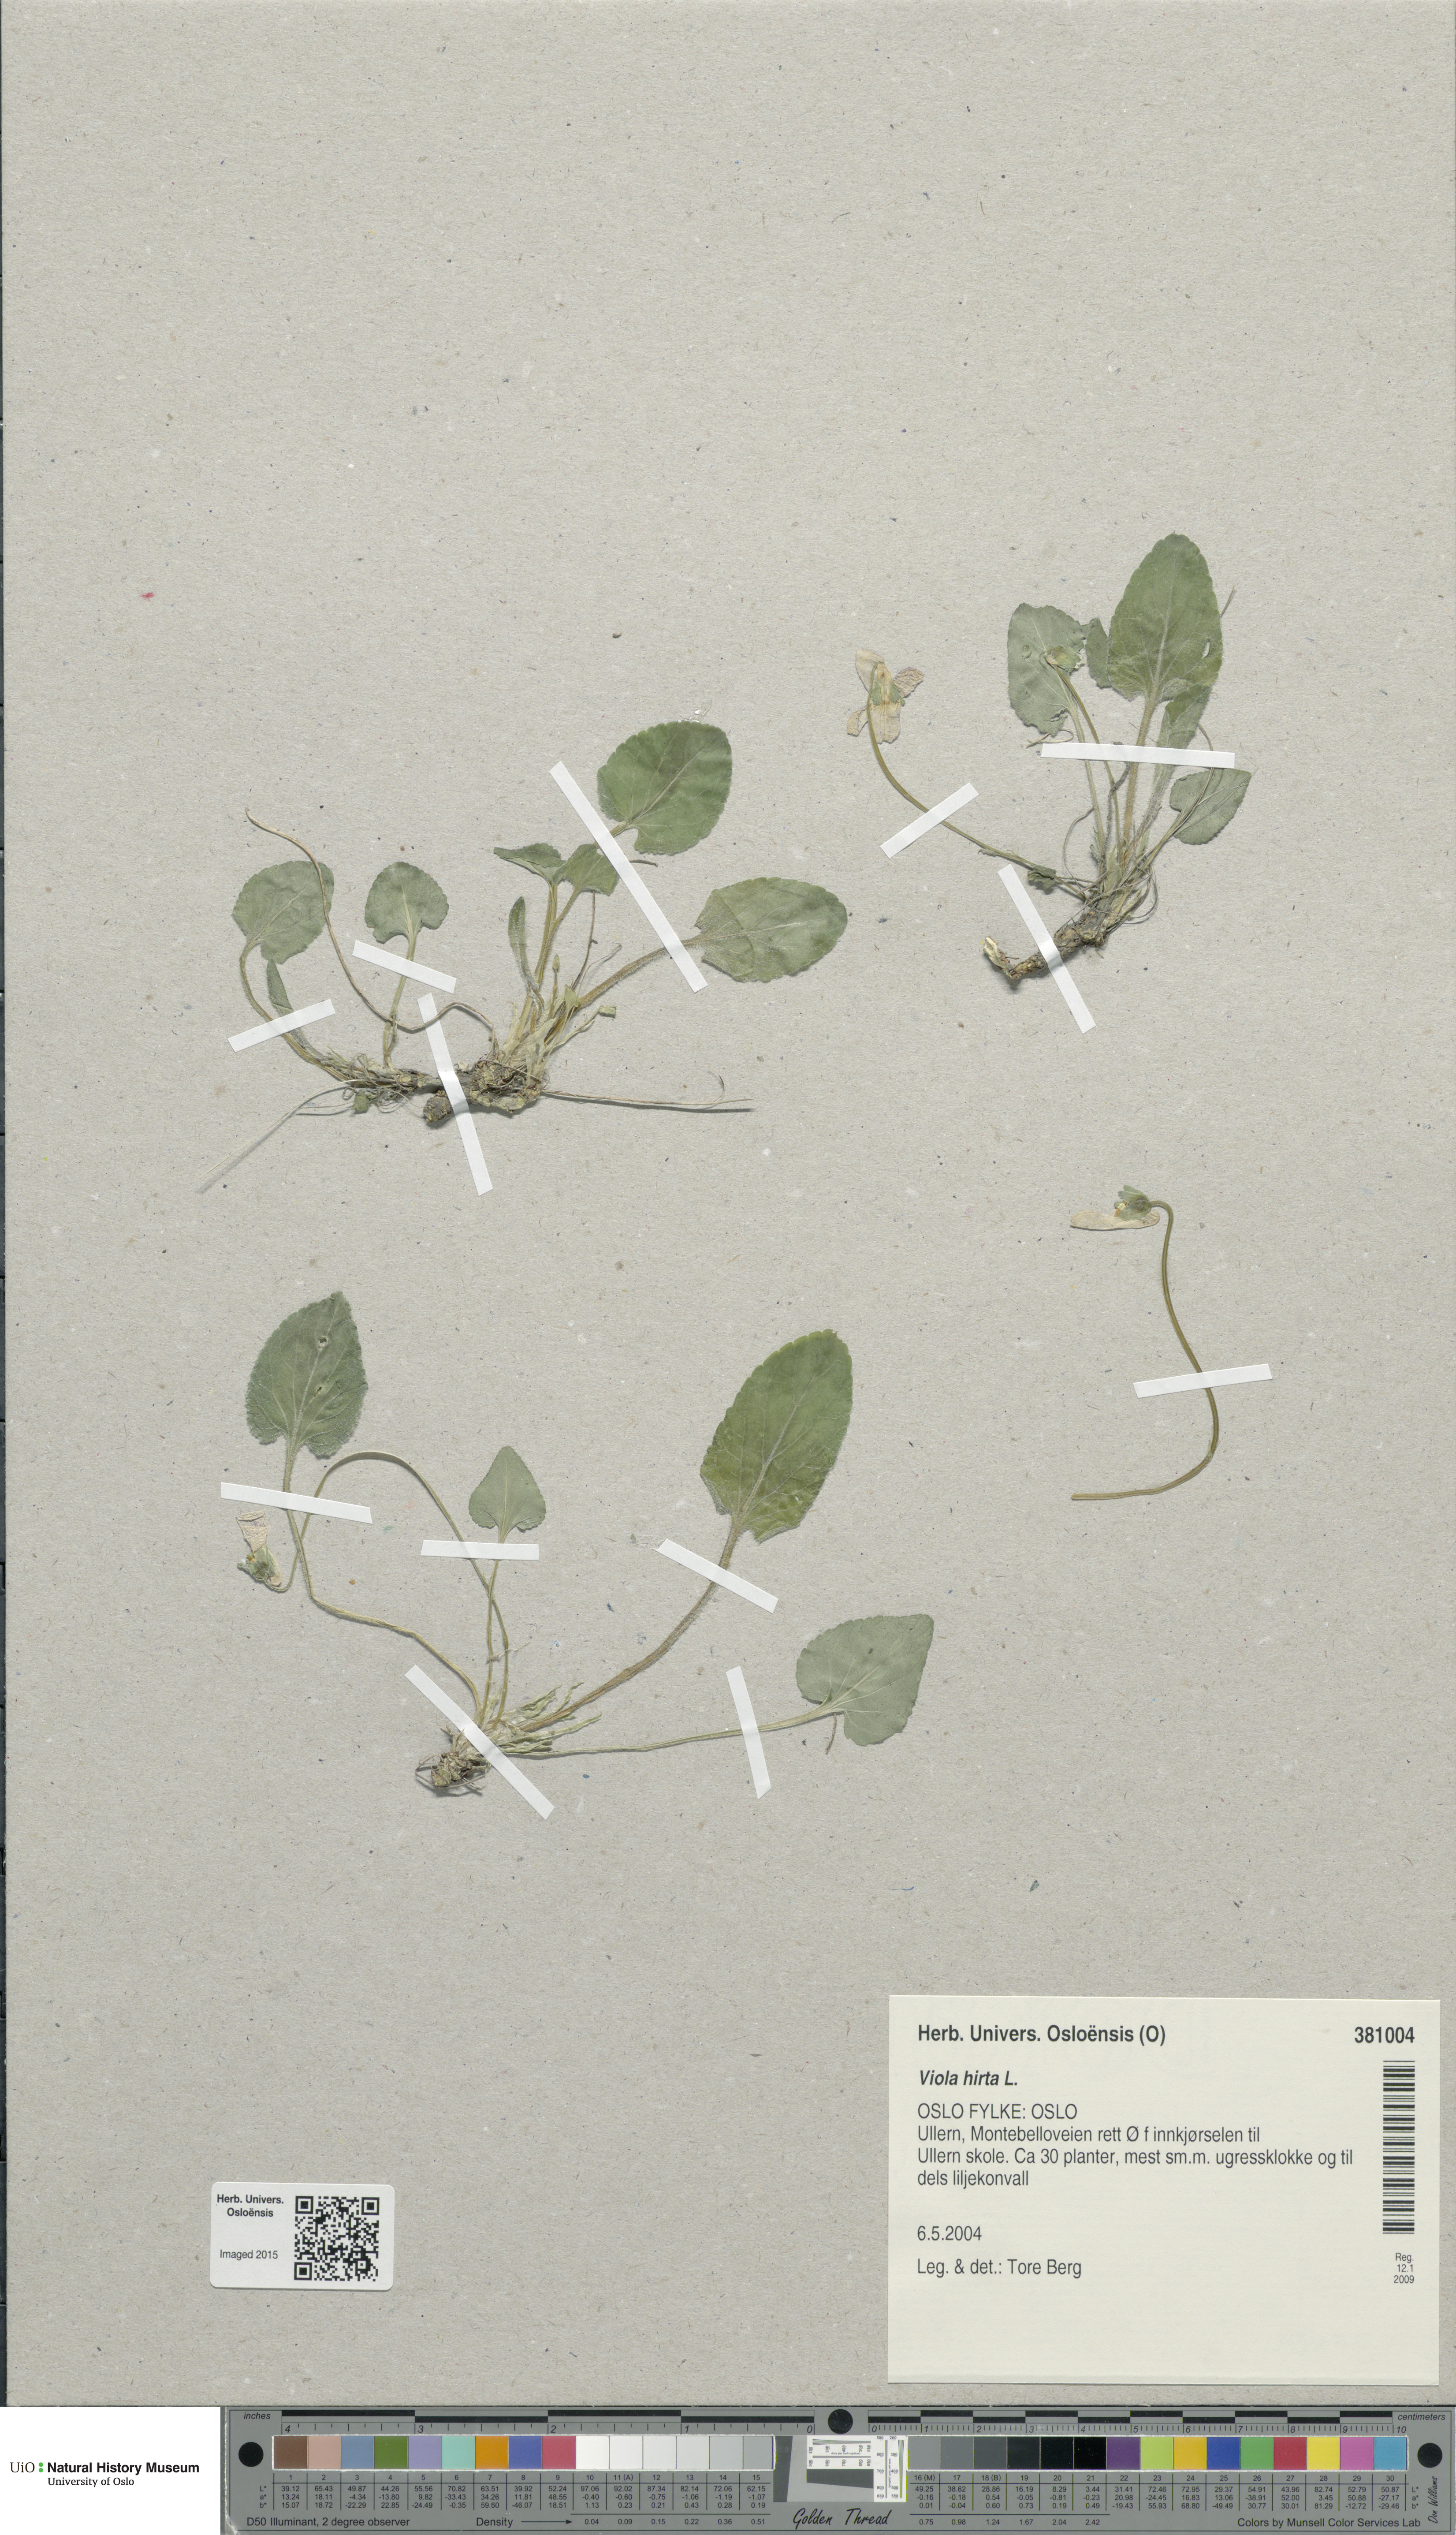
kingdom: Plantae
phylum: Tracheophyta
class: Magnoliopsida
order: Malpighiales
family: Violaceae
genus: Viola
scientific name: Viola hirta
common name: Hairy violet
